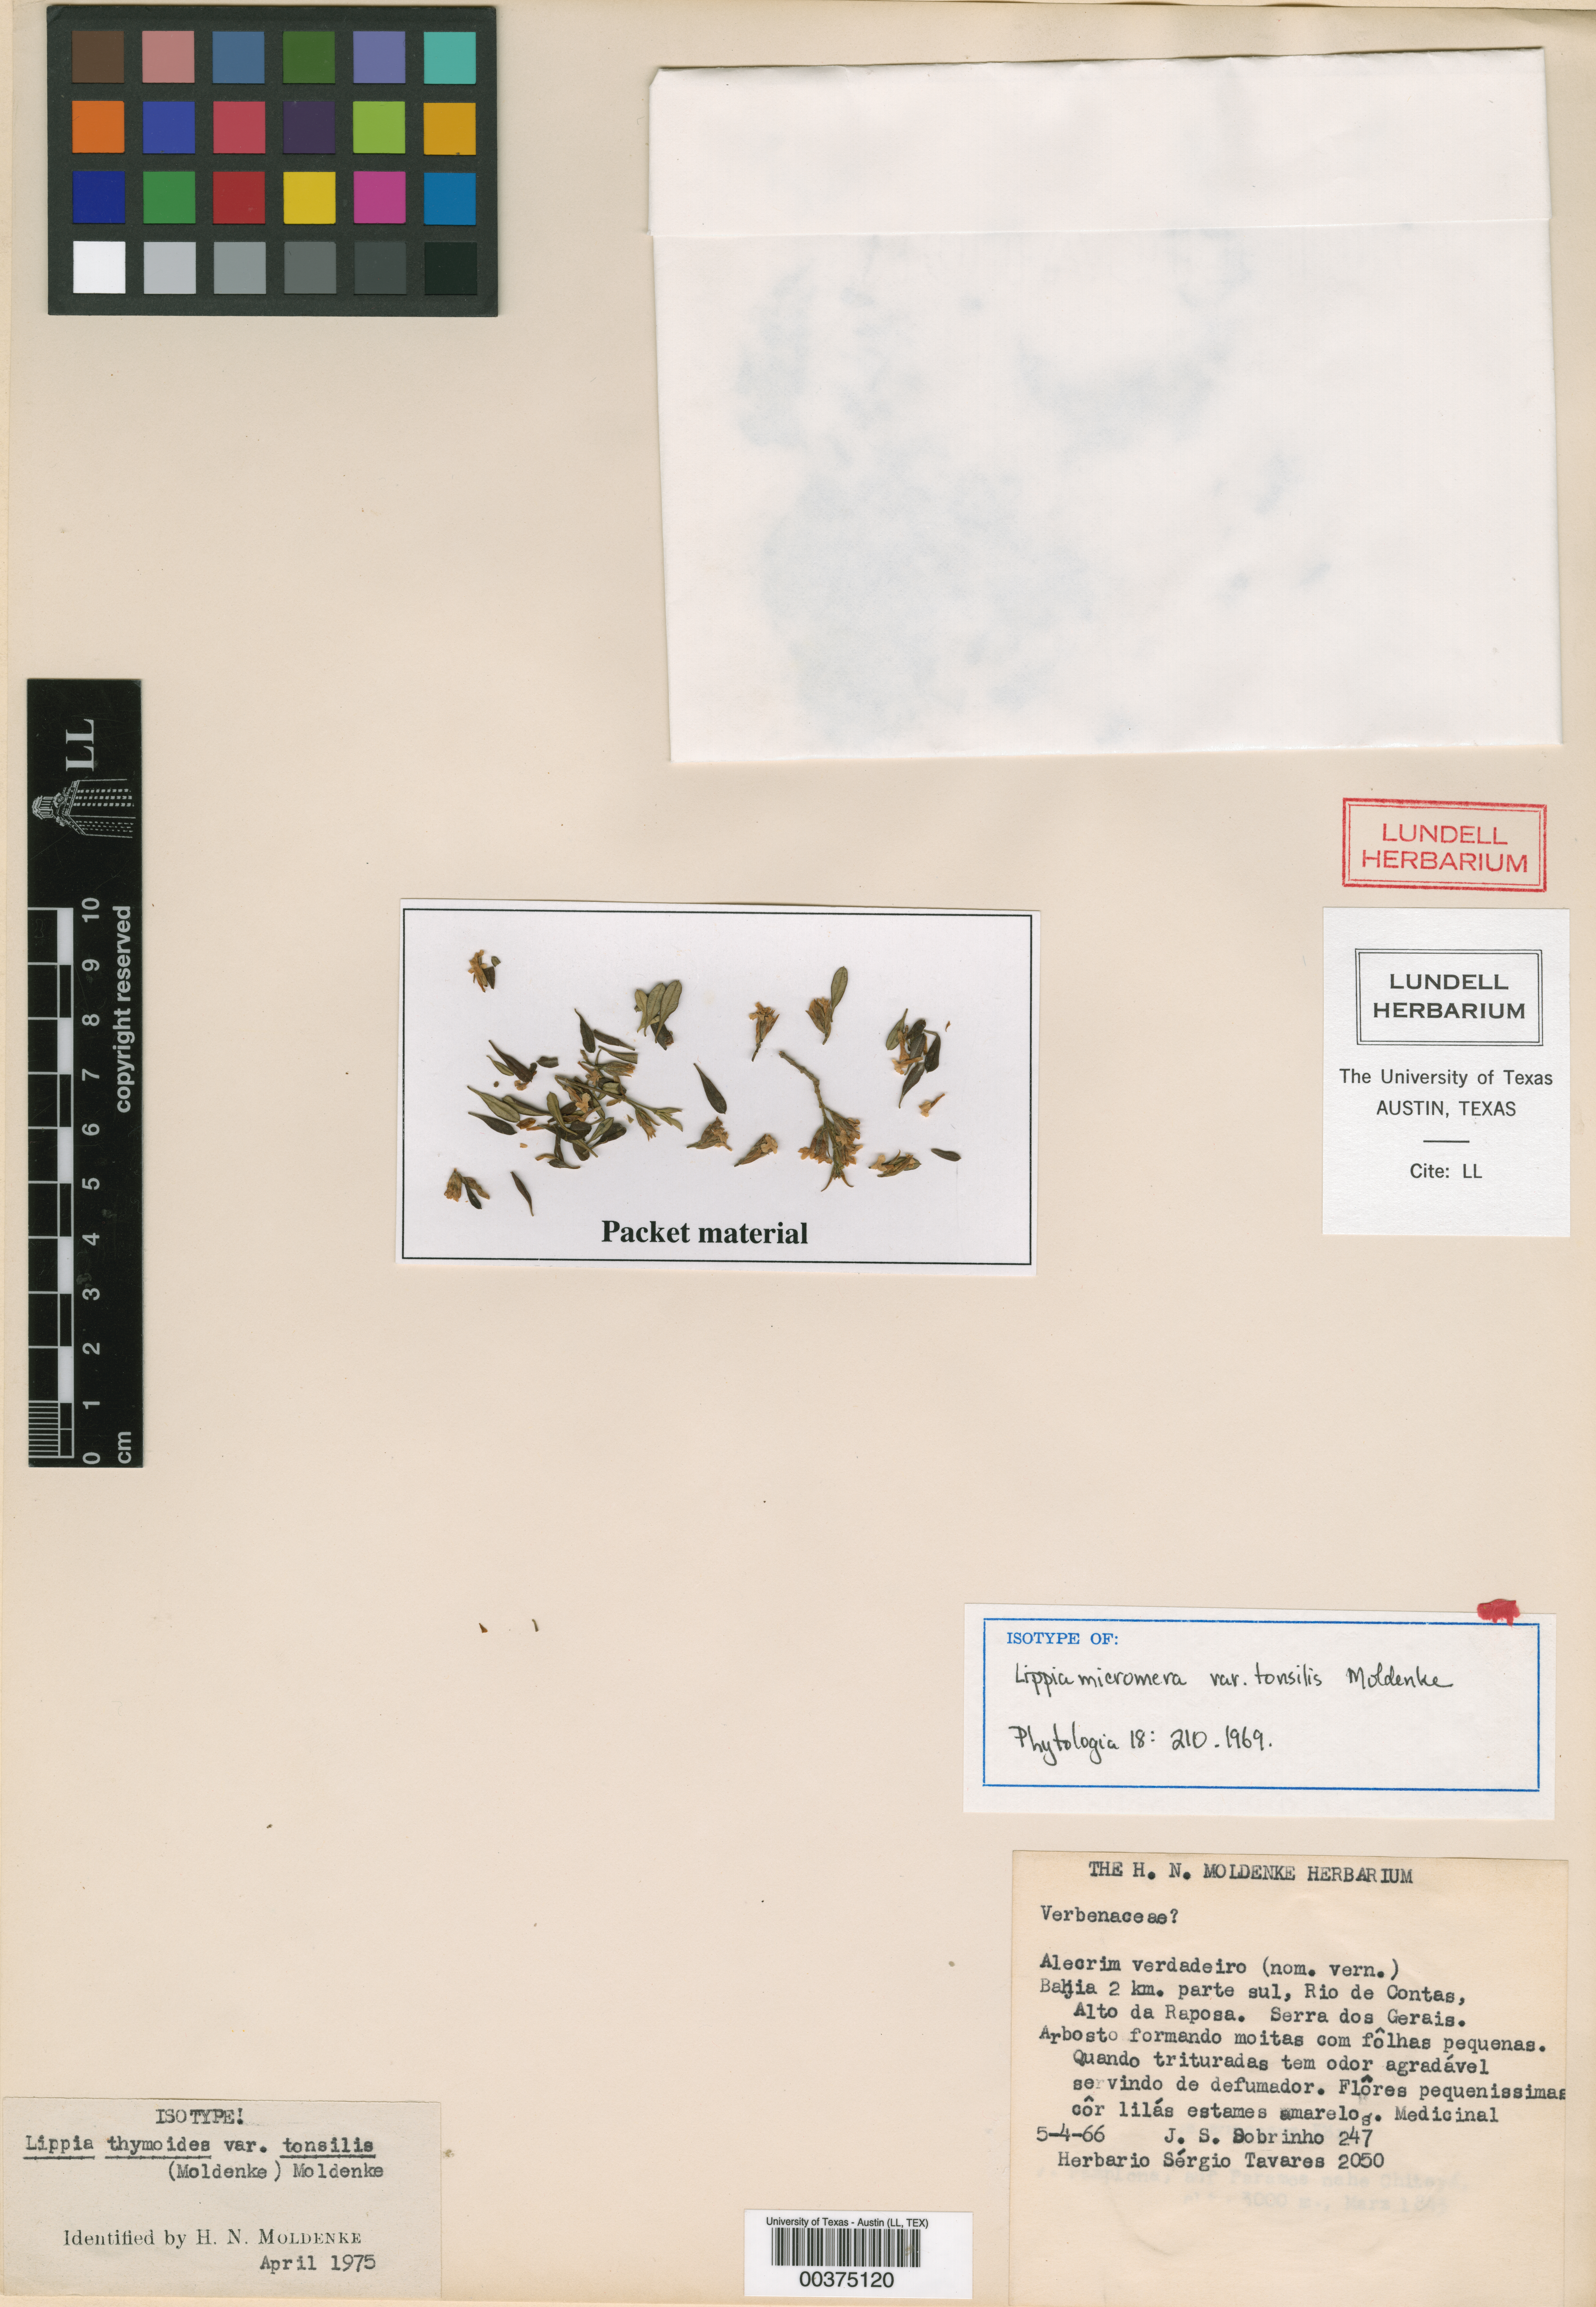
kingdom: Plantae
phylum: Tracheophyta
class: Magnoliopsida
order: Lamiales
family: Verbenaceae
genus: Lippia
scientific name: Lippia thymoides
